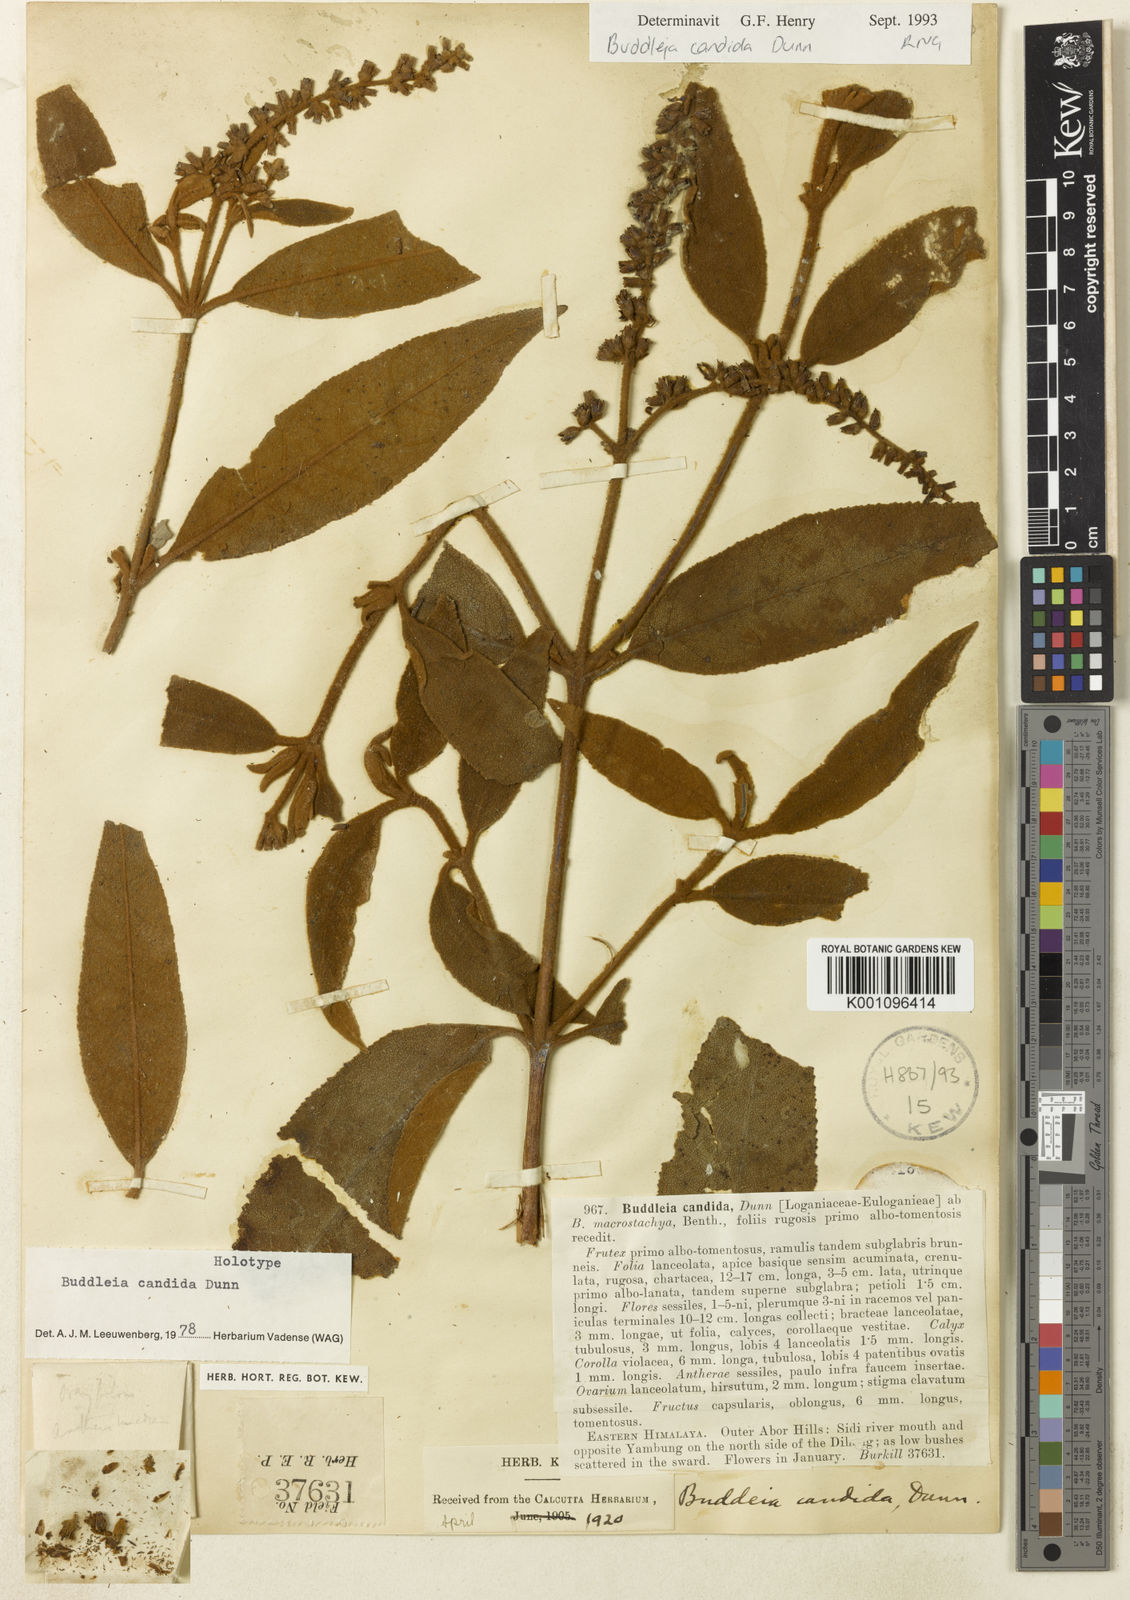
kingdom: Plantae
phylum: Tracheophyta
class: Magnoliopsida
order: Lamiales
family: Scrophulariaceae
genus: Buddleja
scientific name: Buddleja candida
